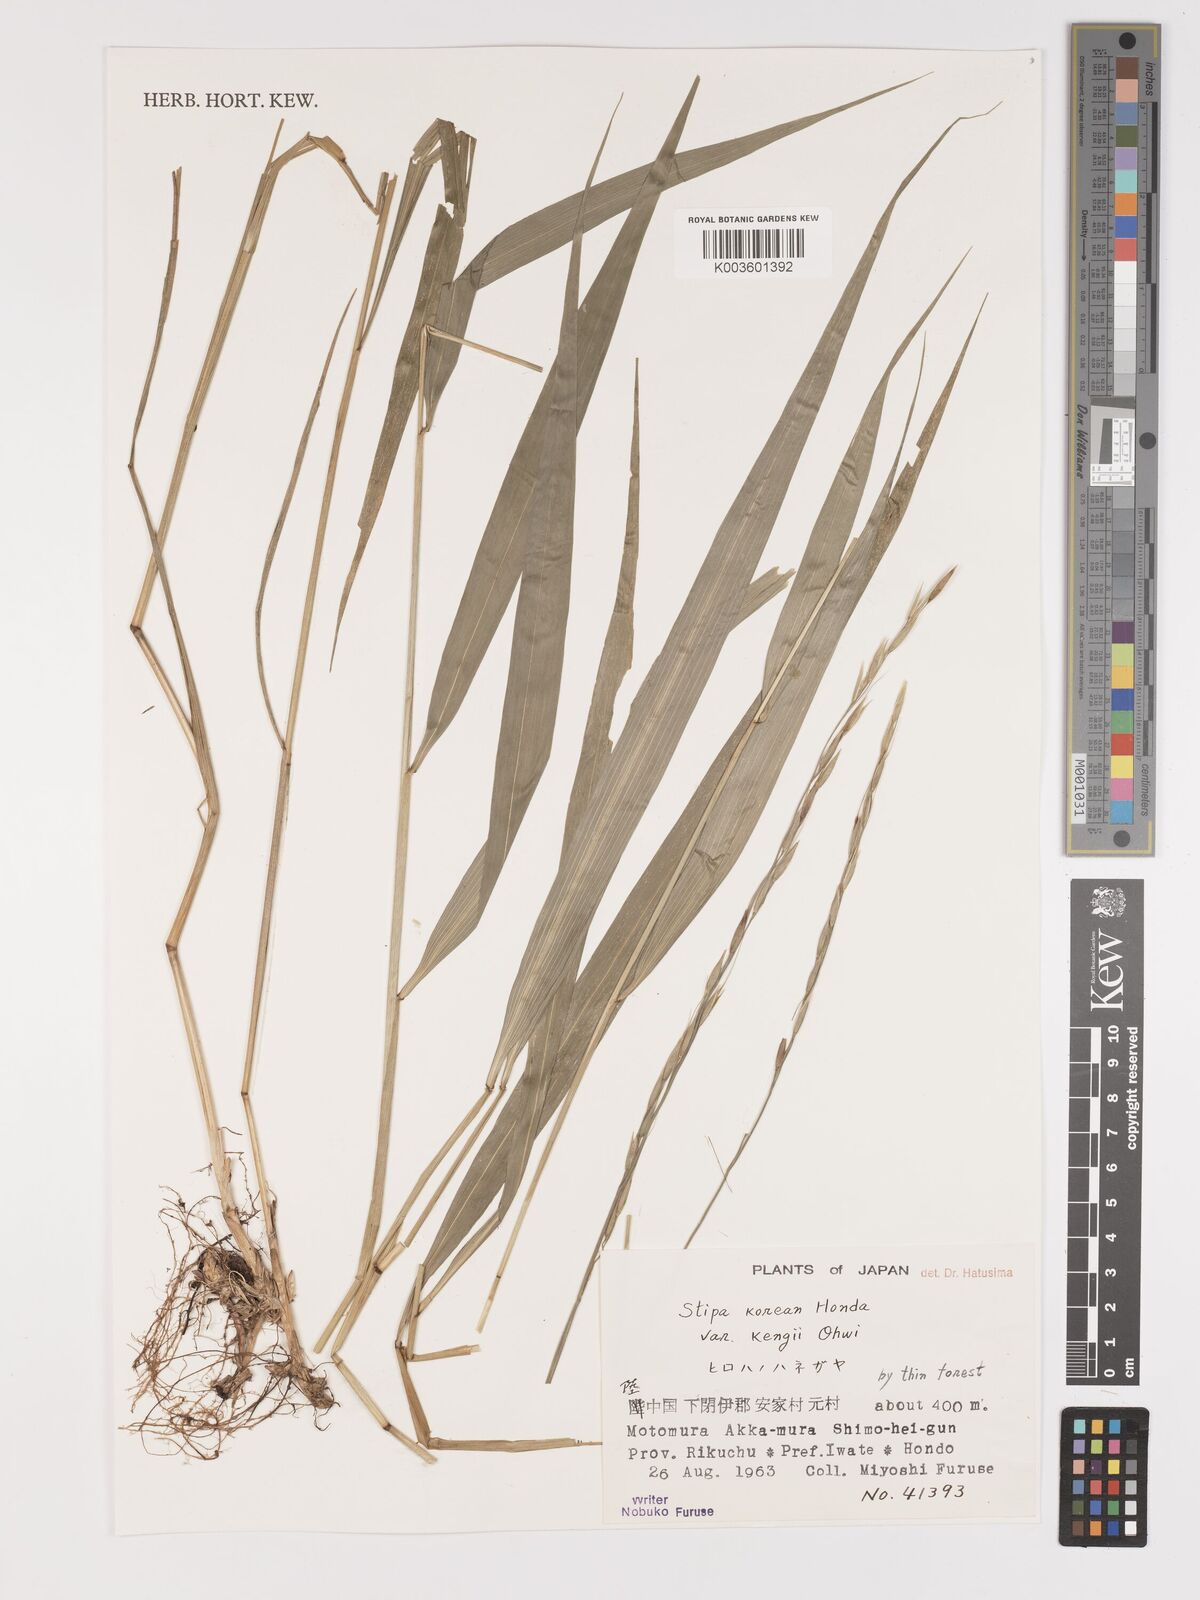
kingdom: Plantae
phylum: Tracheophyta
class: Liliopsida
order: Poales
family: Poaceae
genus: Patis
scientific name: Patis coreana
